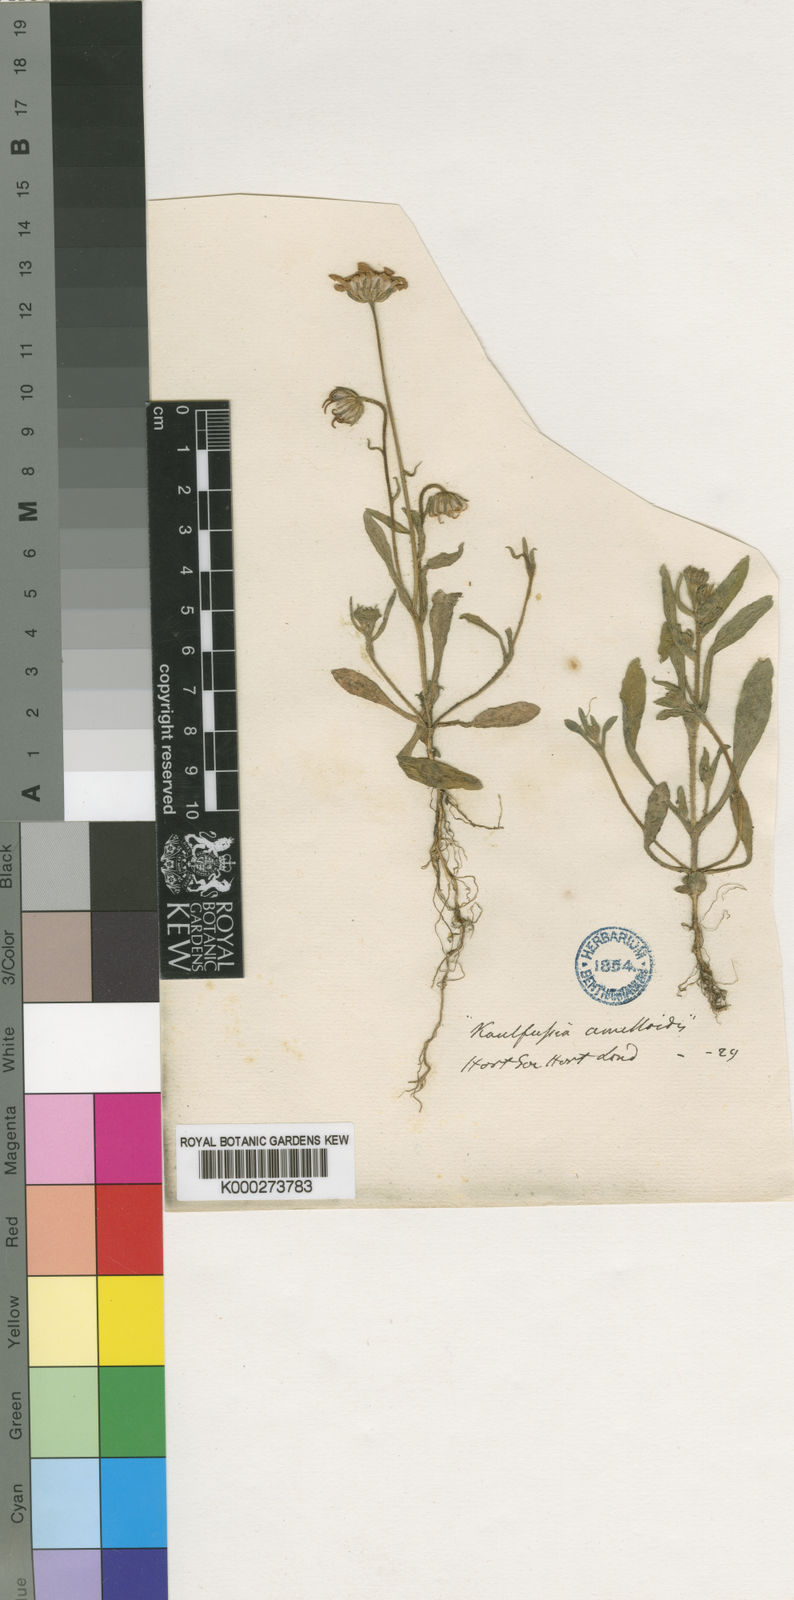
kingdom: Plantae
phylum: Tracheophyta
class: Magnoliopsida
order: Asterales
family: Asteraceae
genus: Felicia
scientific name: Felicia heterophylla
